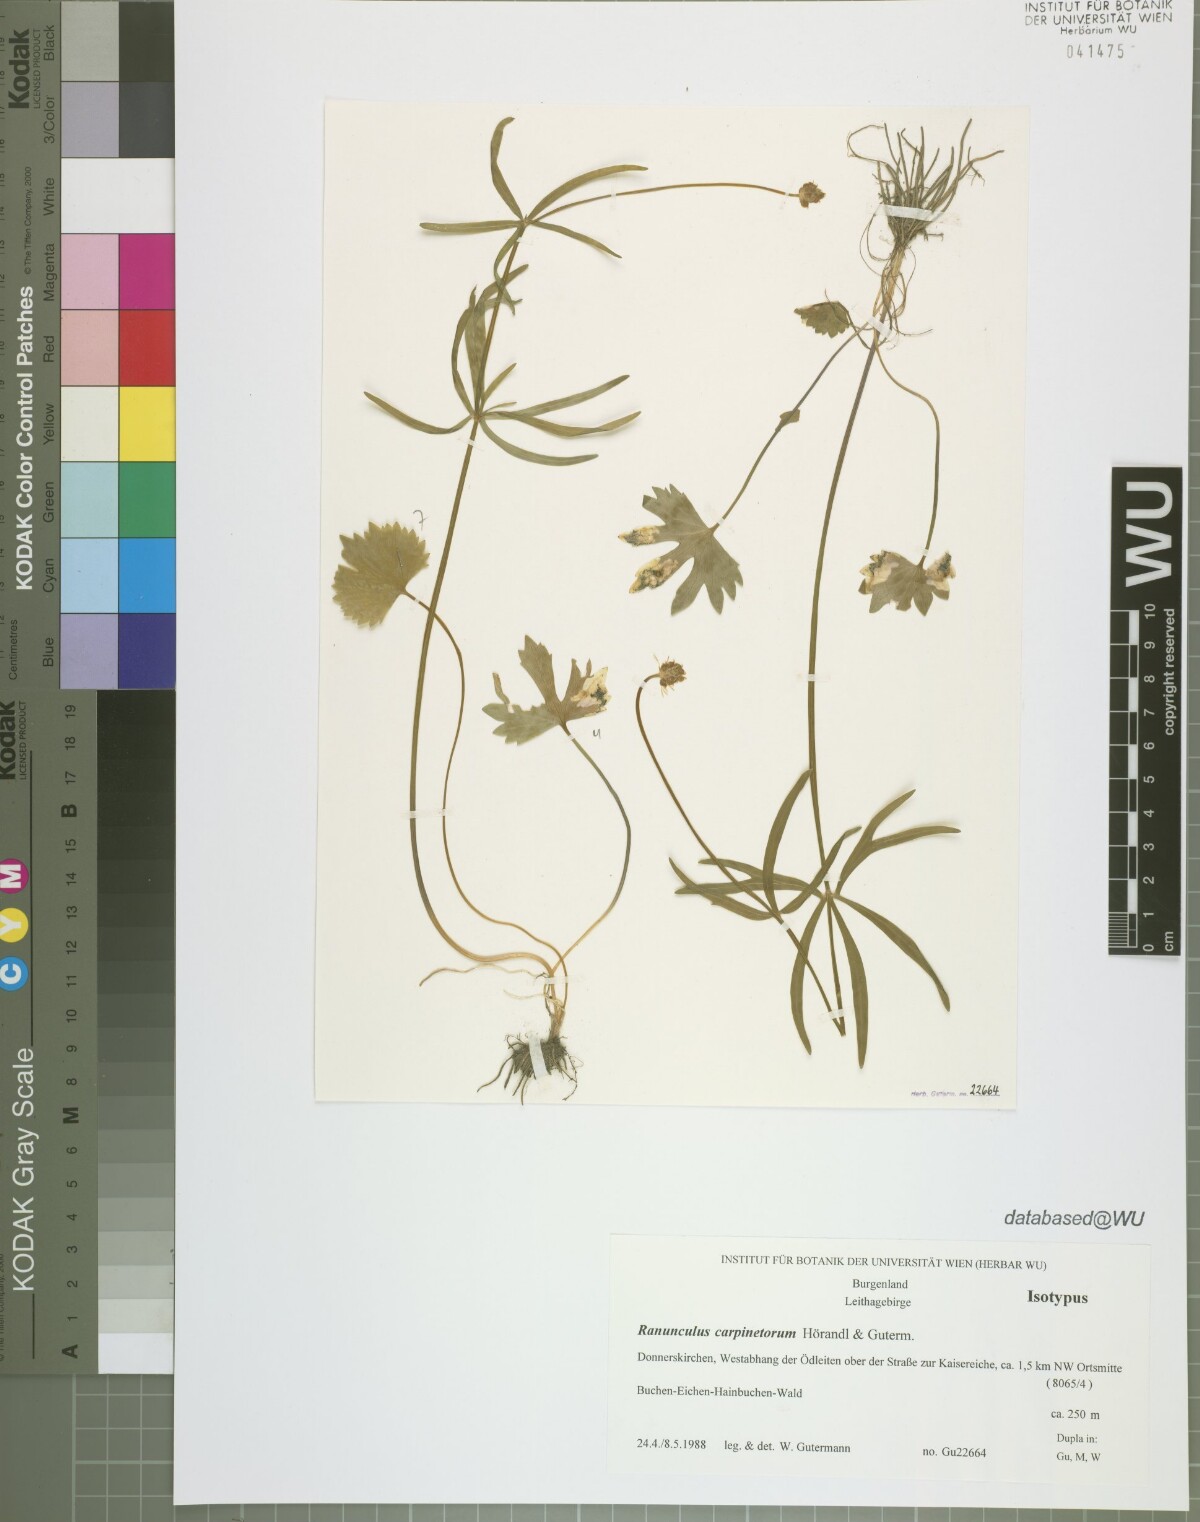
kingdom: Plantae
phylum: Tracheophyta
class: Magnoliopsida
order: Ranunculales
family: Ranunculaceae
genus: Ranunculus
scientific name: Ranunculus carpinetorum
